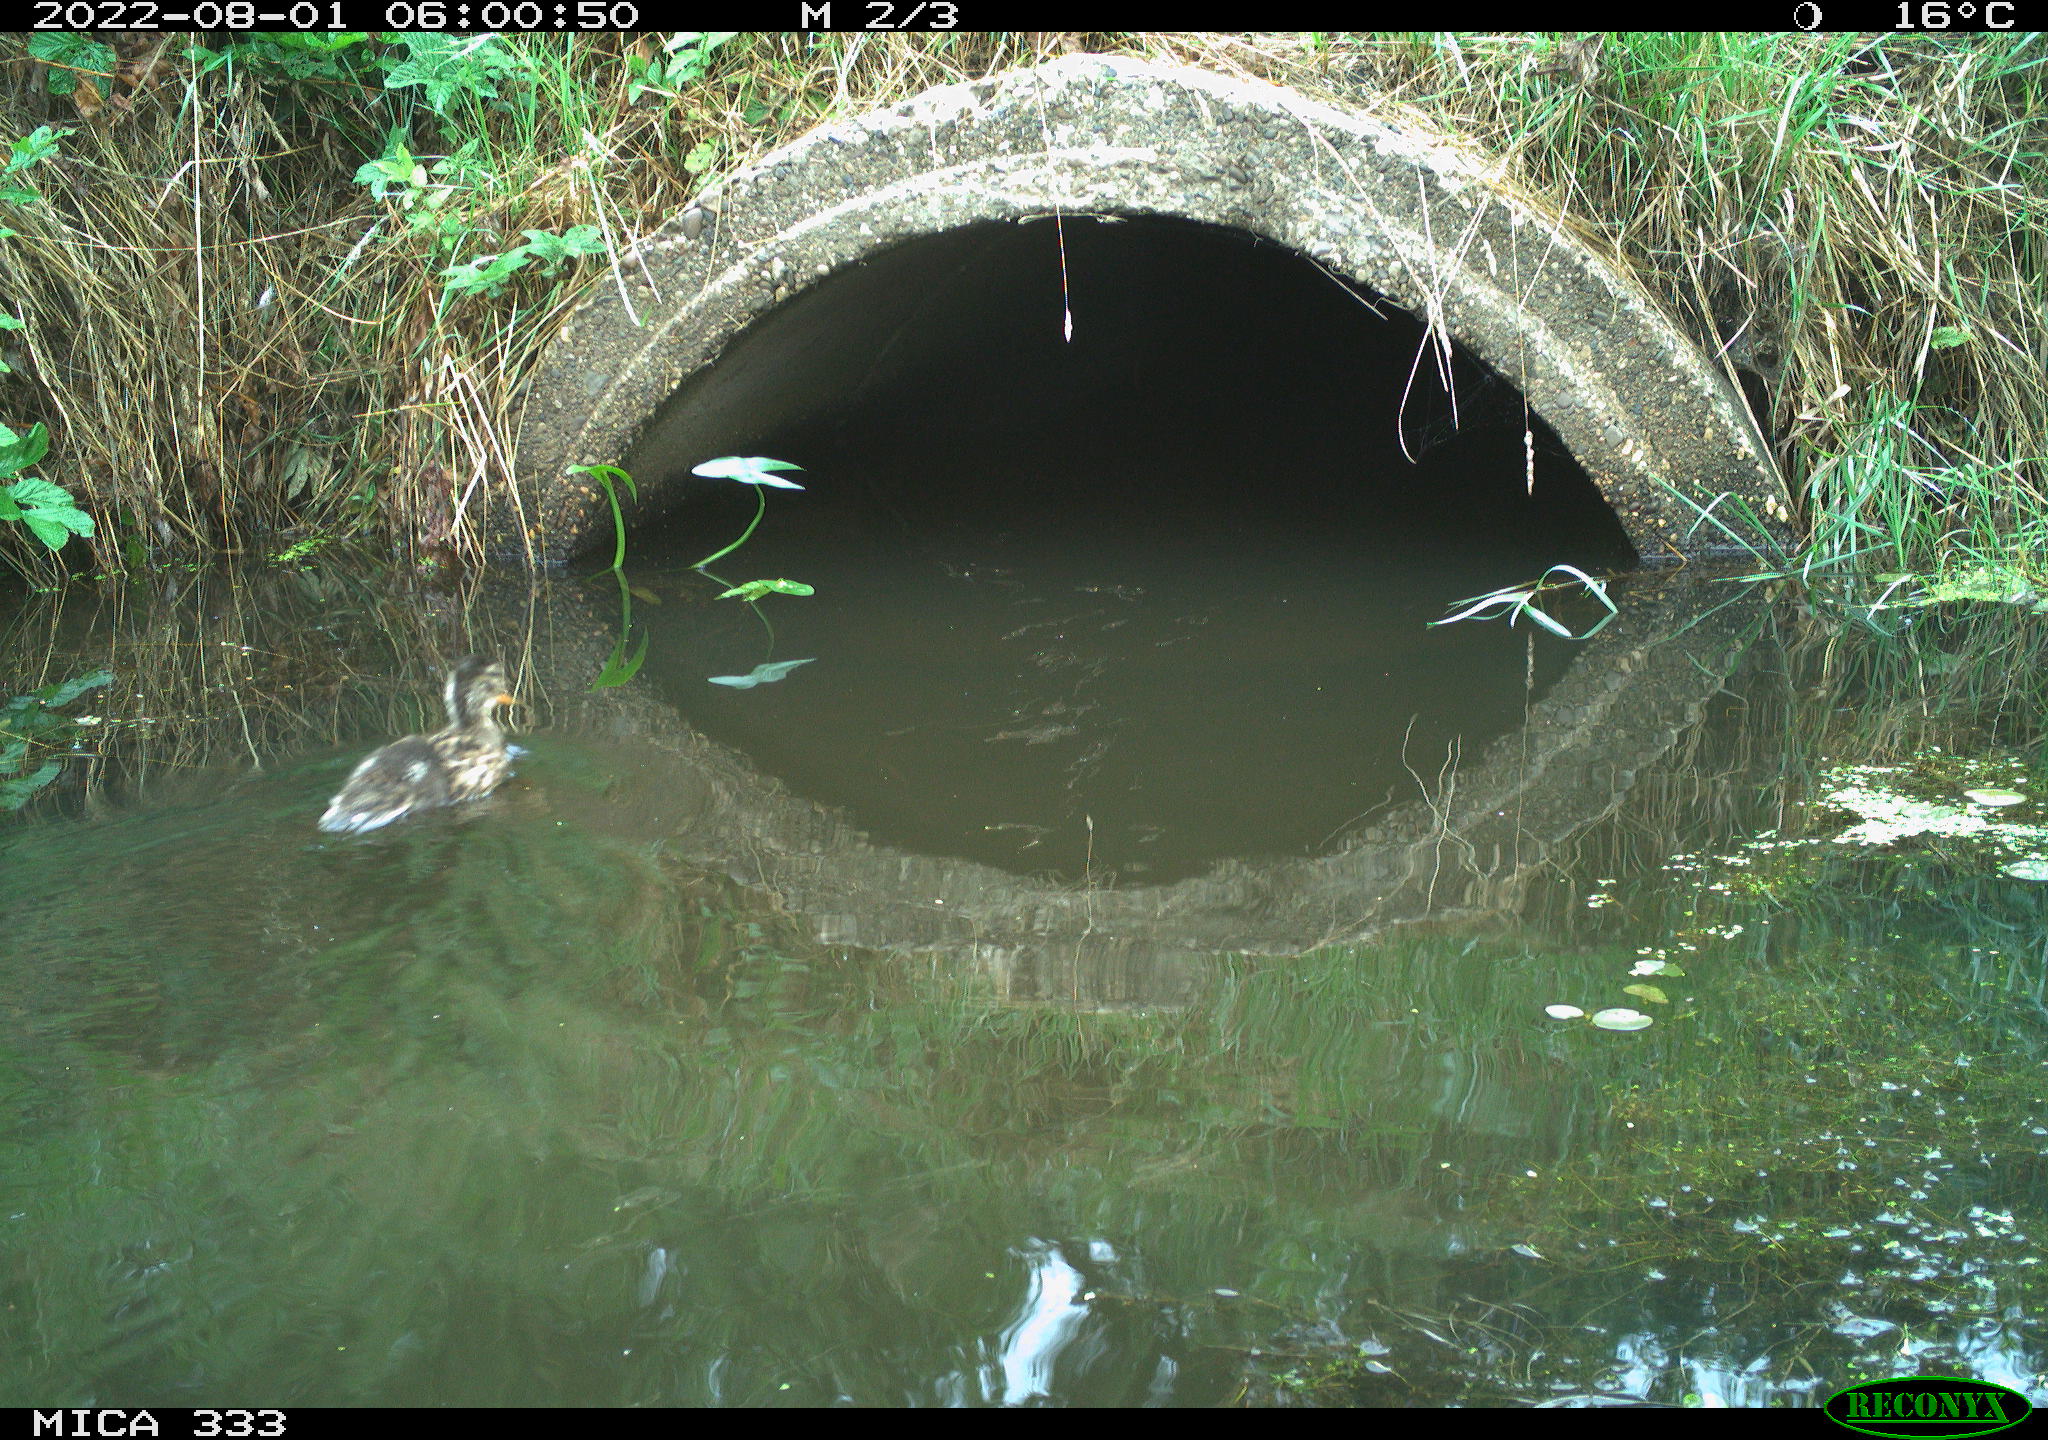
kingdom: Animalia
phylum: Chordata
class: Aves
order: Anseriformes
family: Anatidae
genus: Anas
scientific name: Anas platyrhynchos
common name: Mallard
